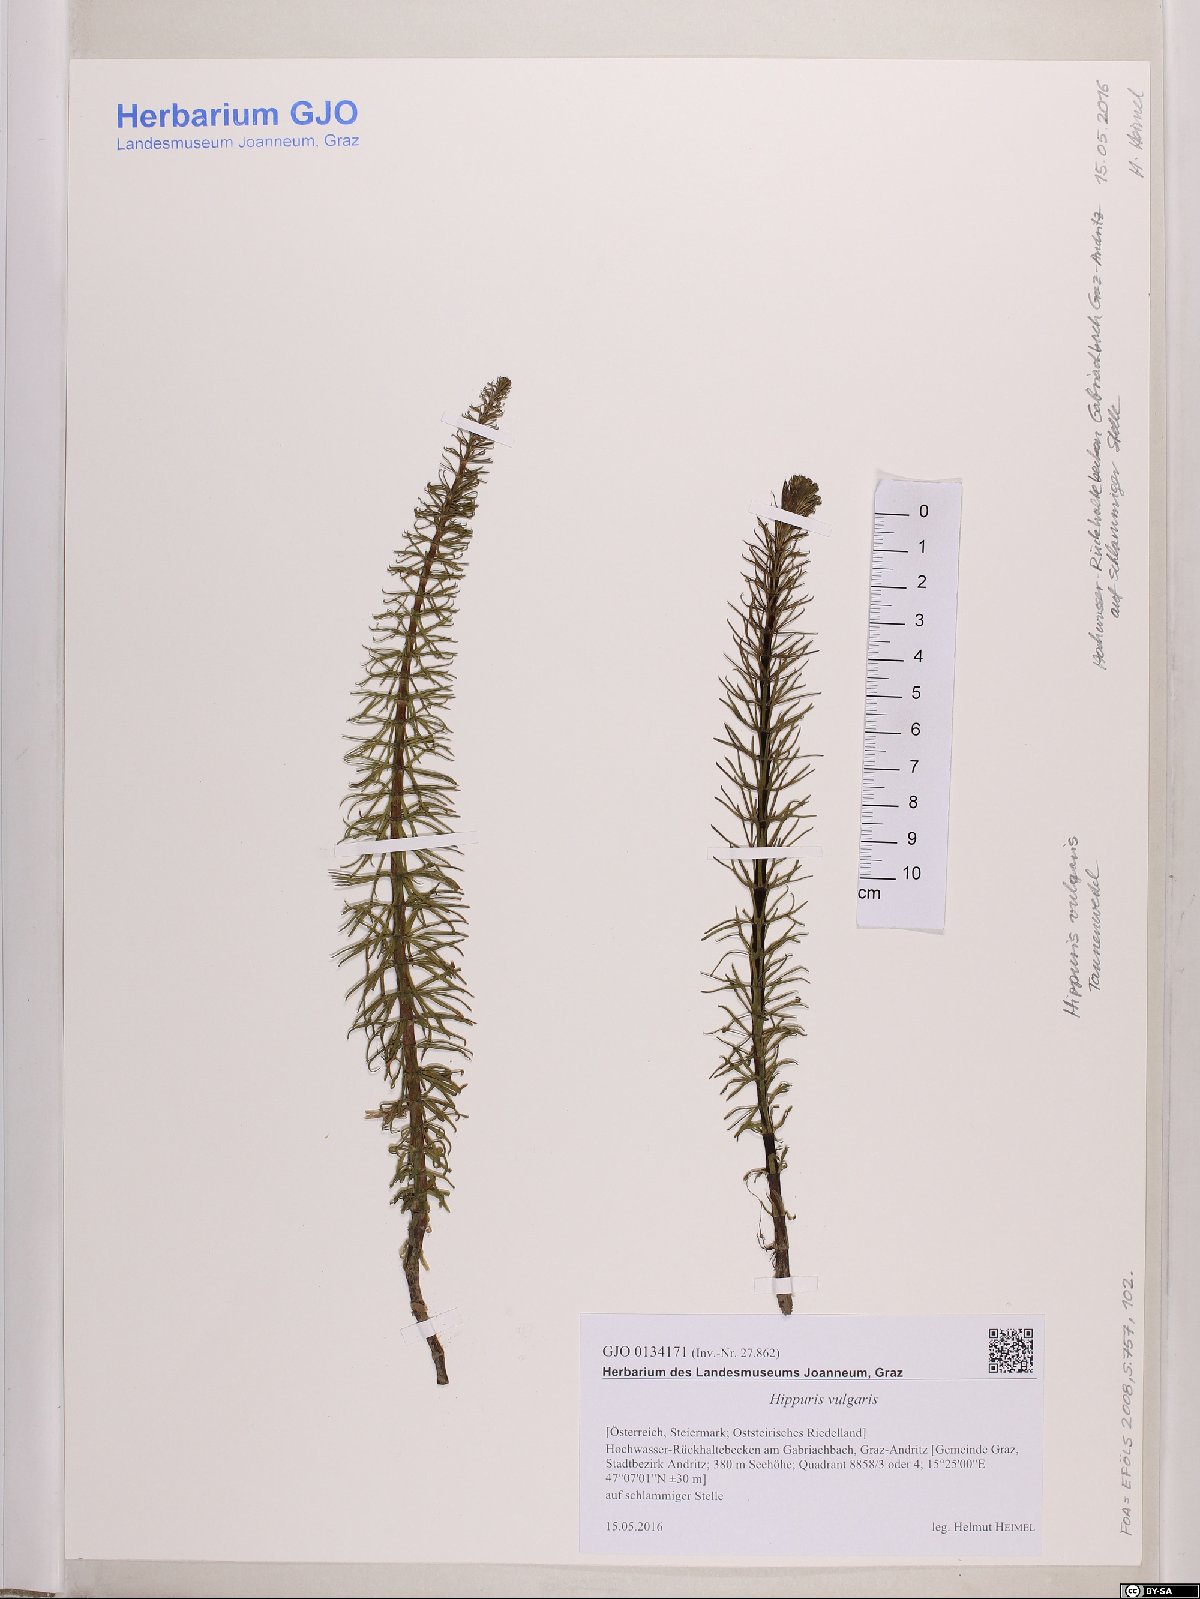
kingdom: Plantae
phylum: Tracheophyta
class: Magnoliopsida
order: Lamiales
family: Plantaginaceae
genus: Hippuris
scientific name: Hippuris vulgaris
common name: Mare's-tail
